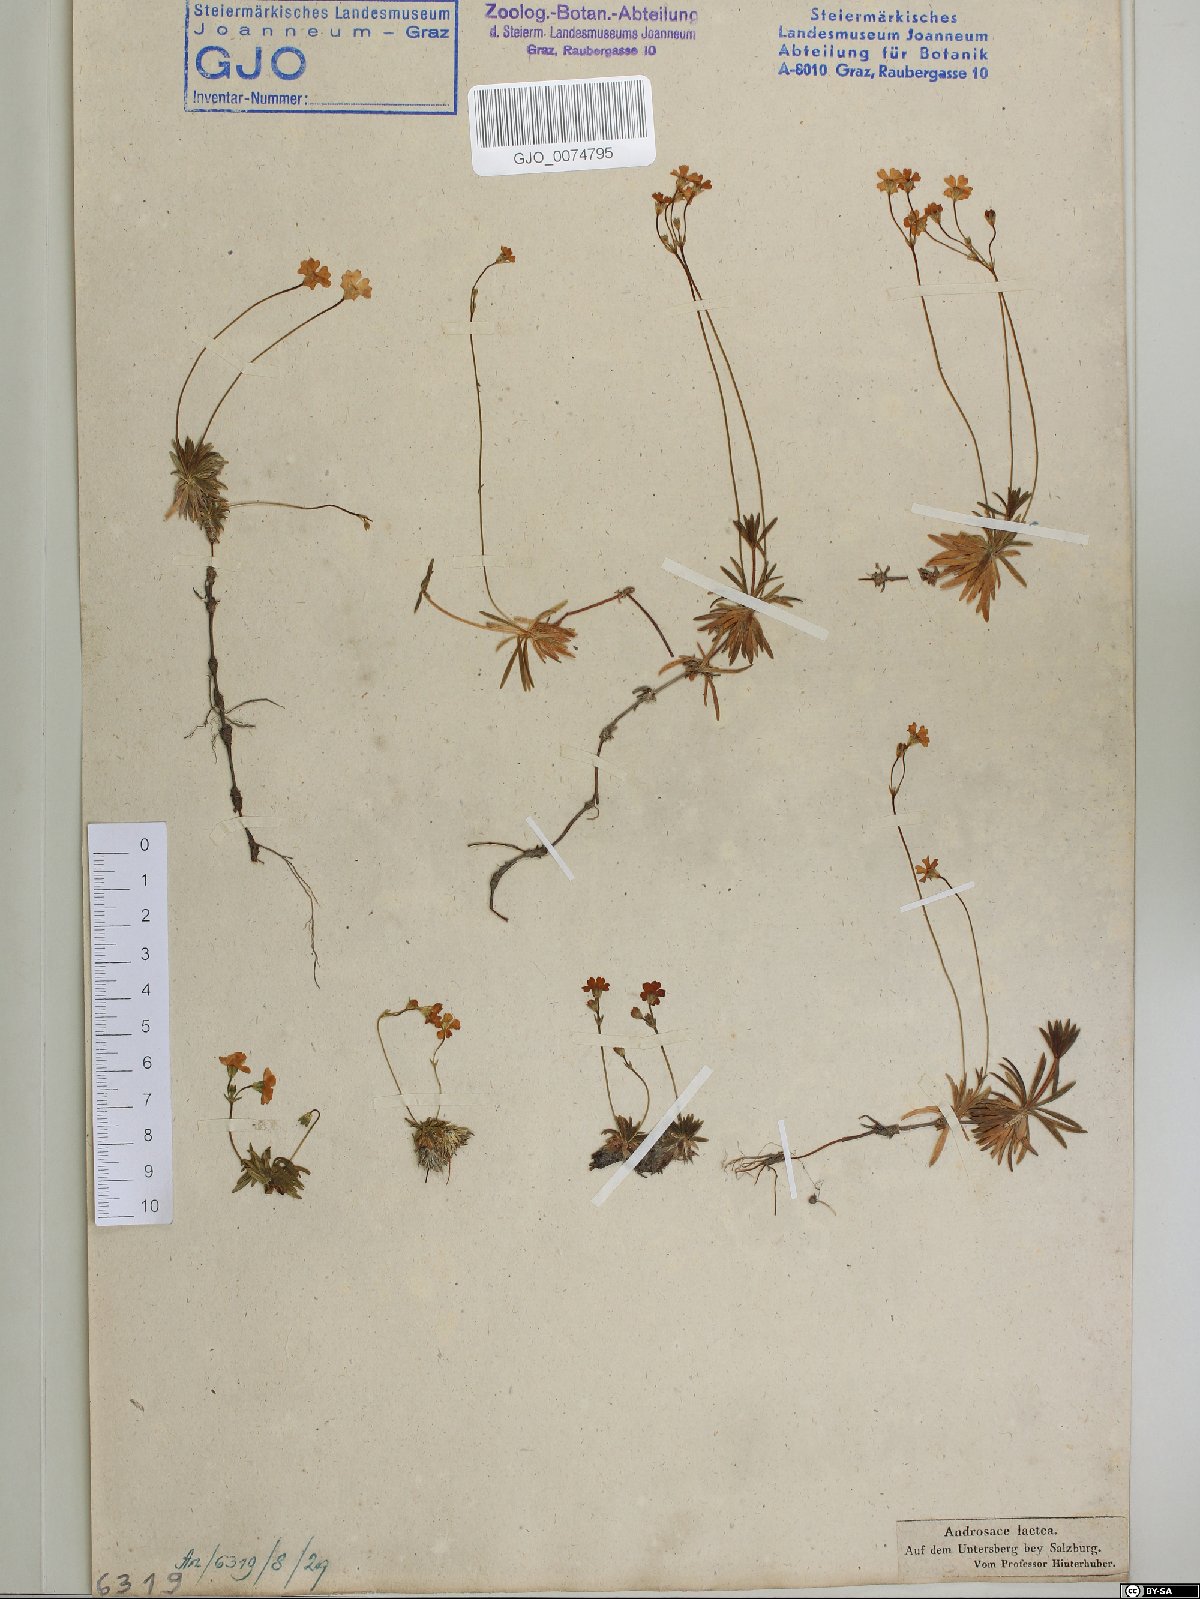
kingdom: Plantae
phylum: Tracheophyta
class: Magnoliopsida
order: Ericales
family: Primulaceae
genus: Androsace
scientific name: Androsace lactea
